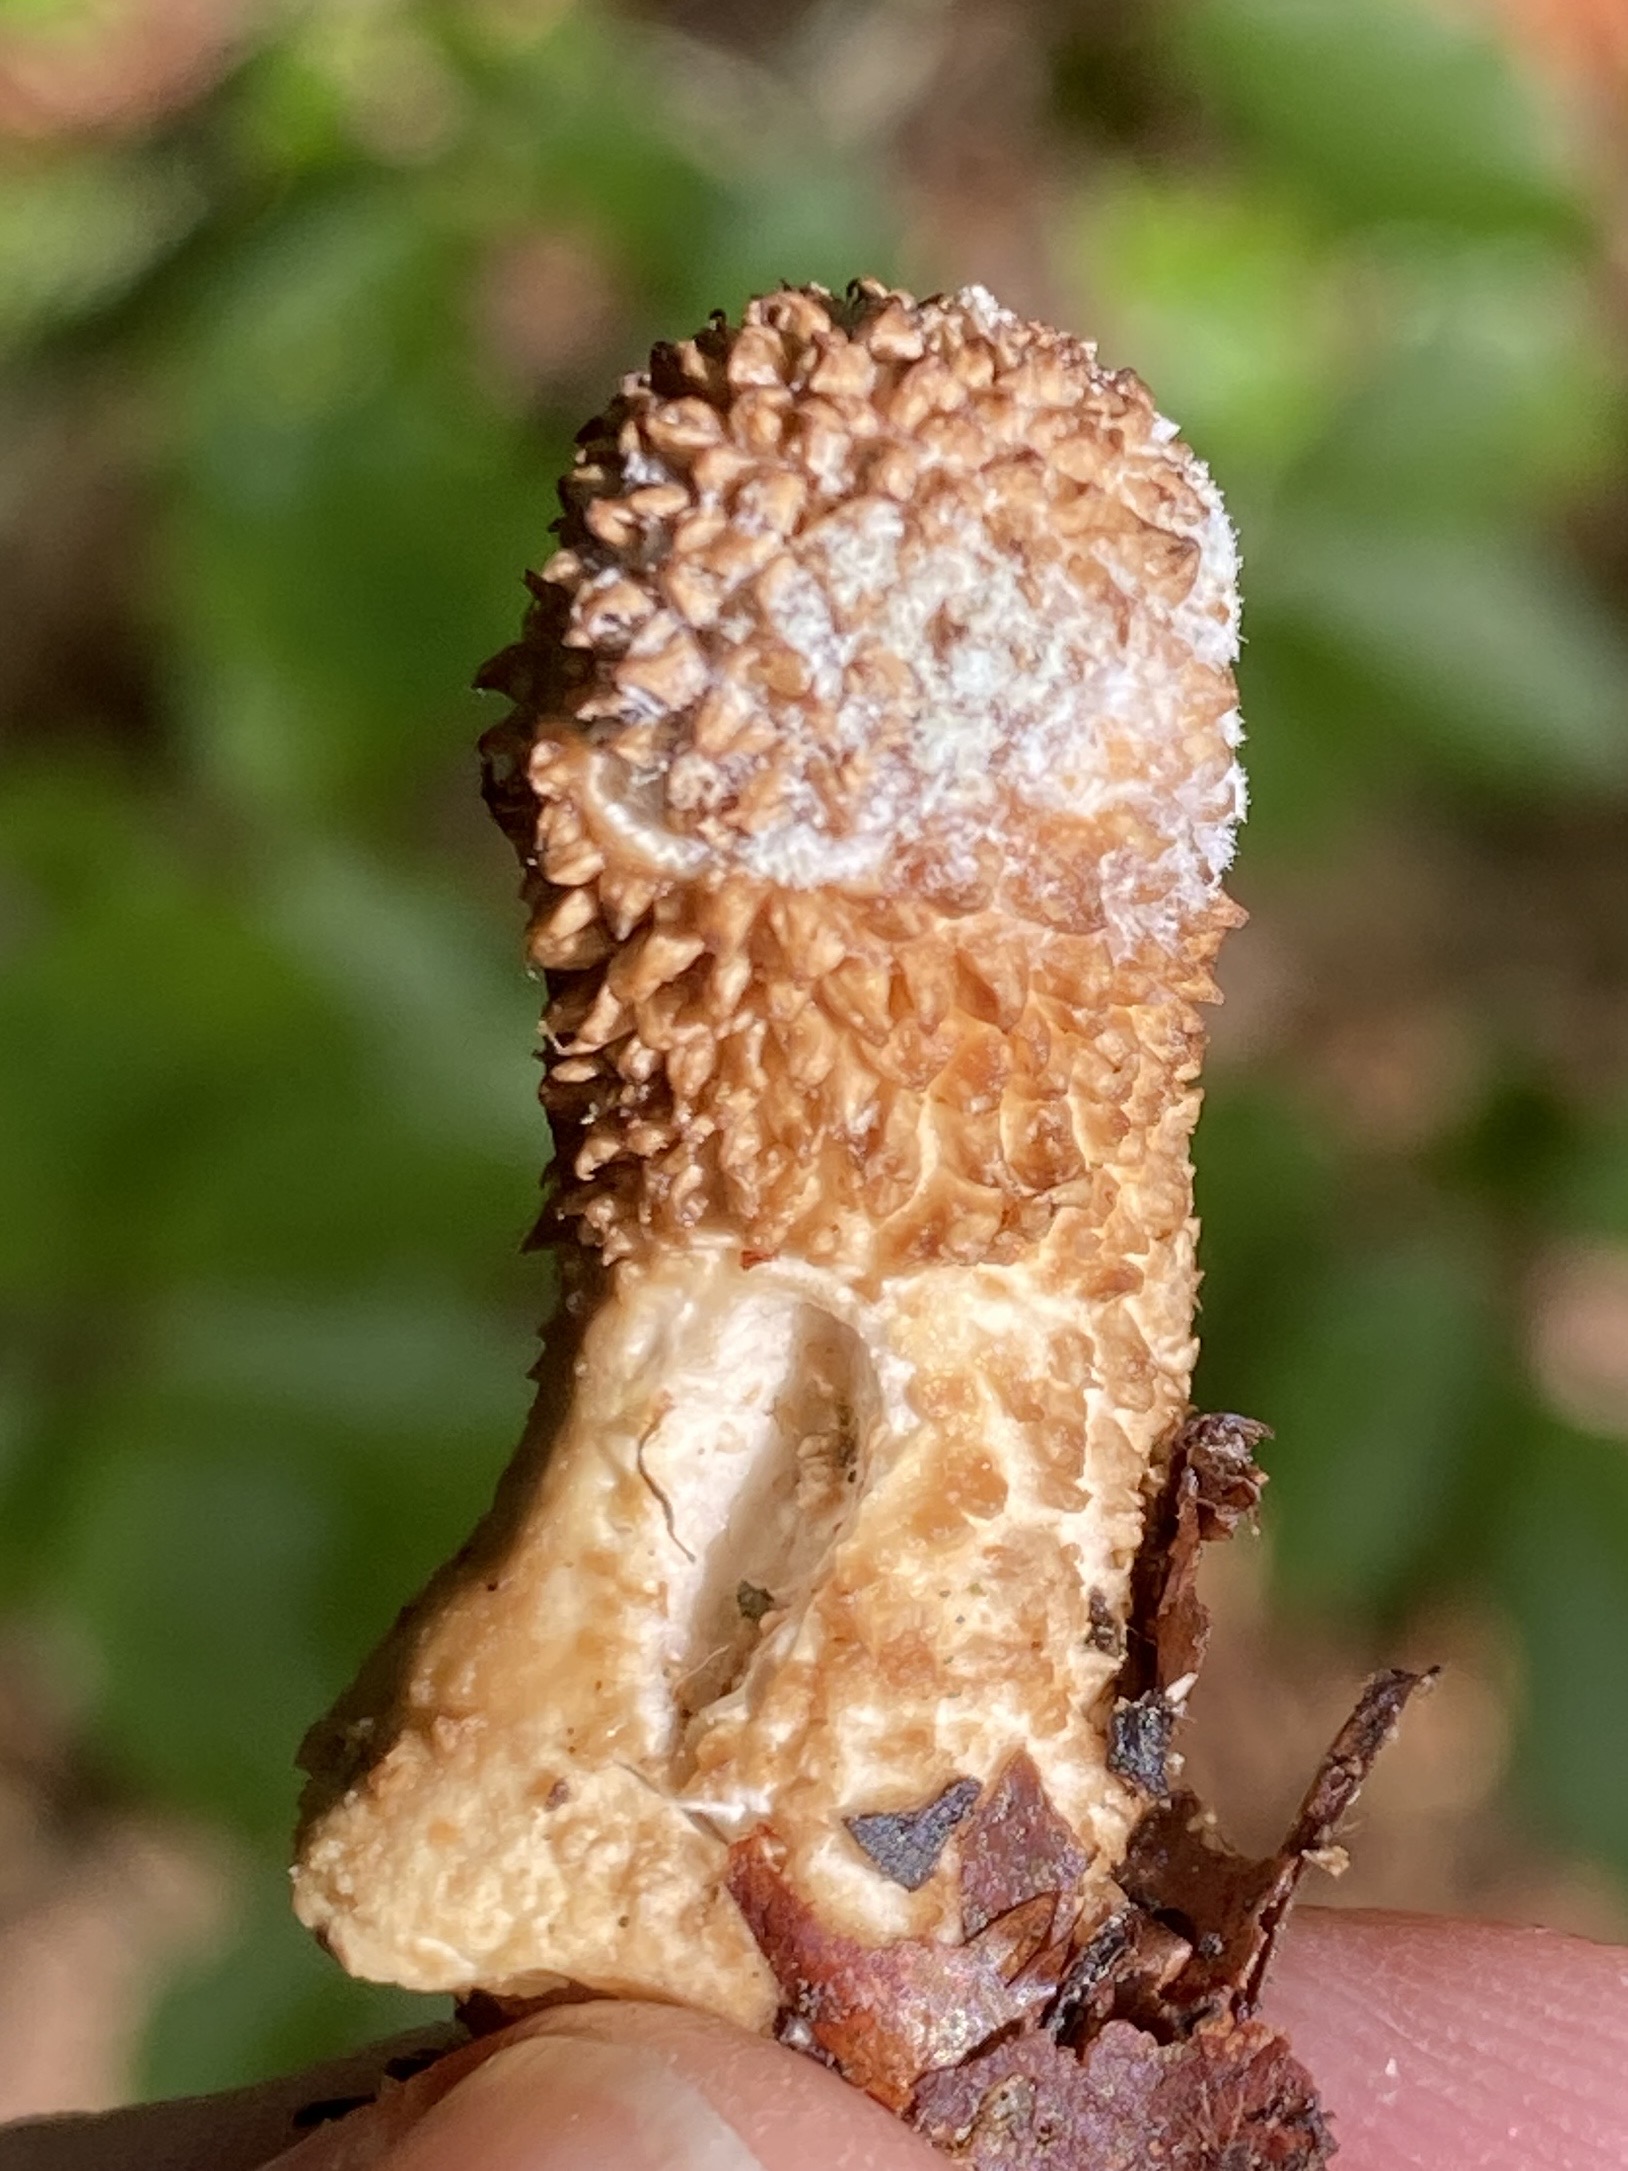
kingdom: Fungi
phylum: Basidiomycota
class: Agaricomycetes
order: Agaricales
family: Agaricaceae
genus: Lycoperdon
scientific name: Lycoperdon
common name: støvbold
